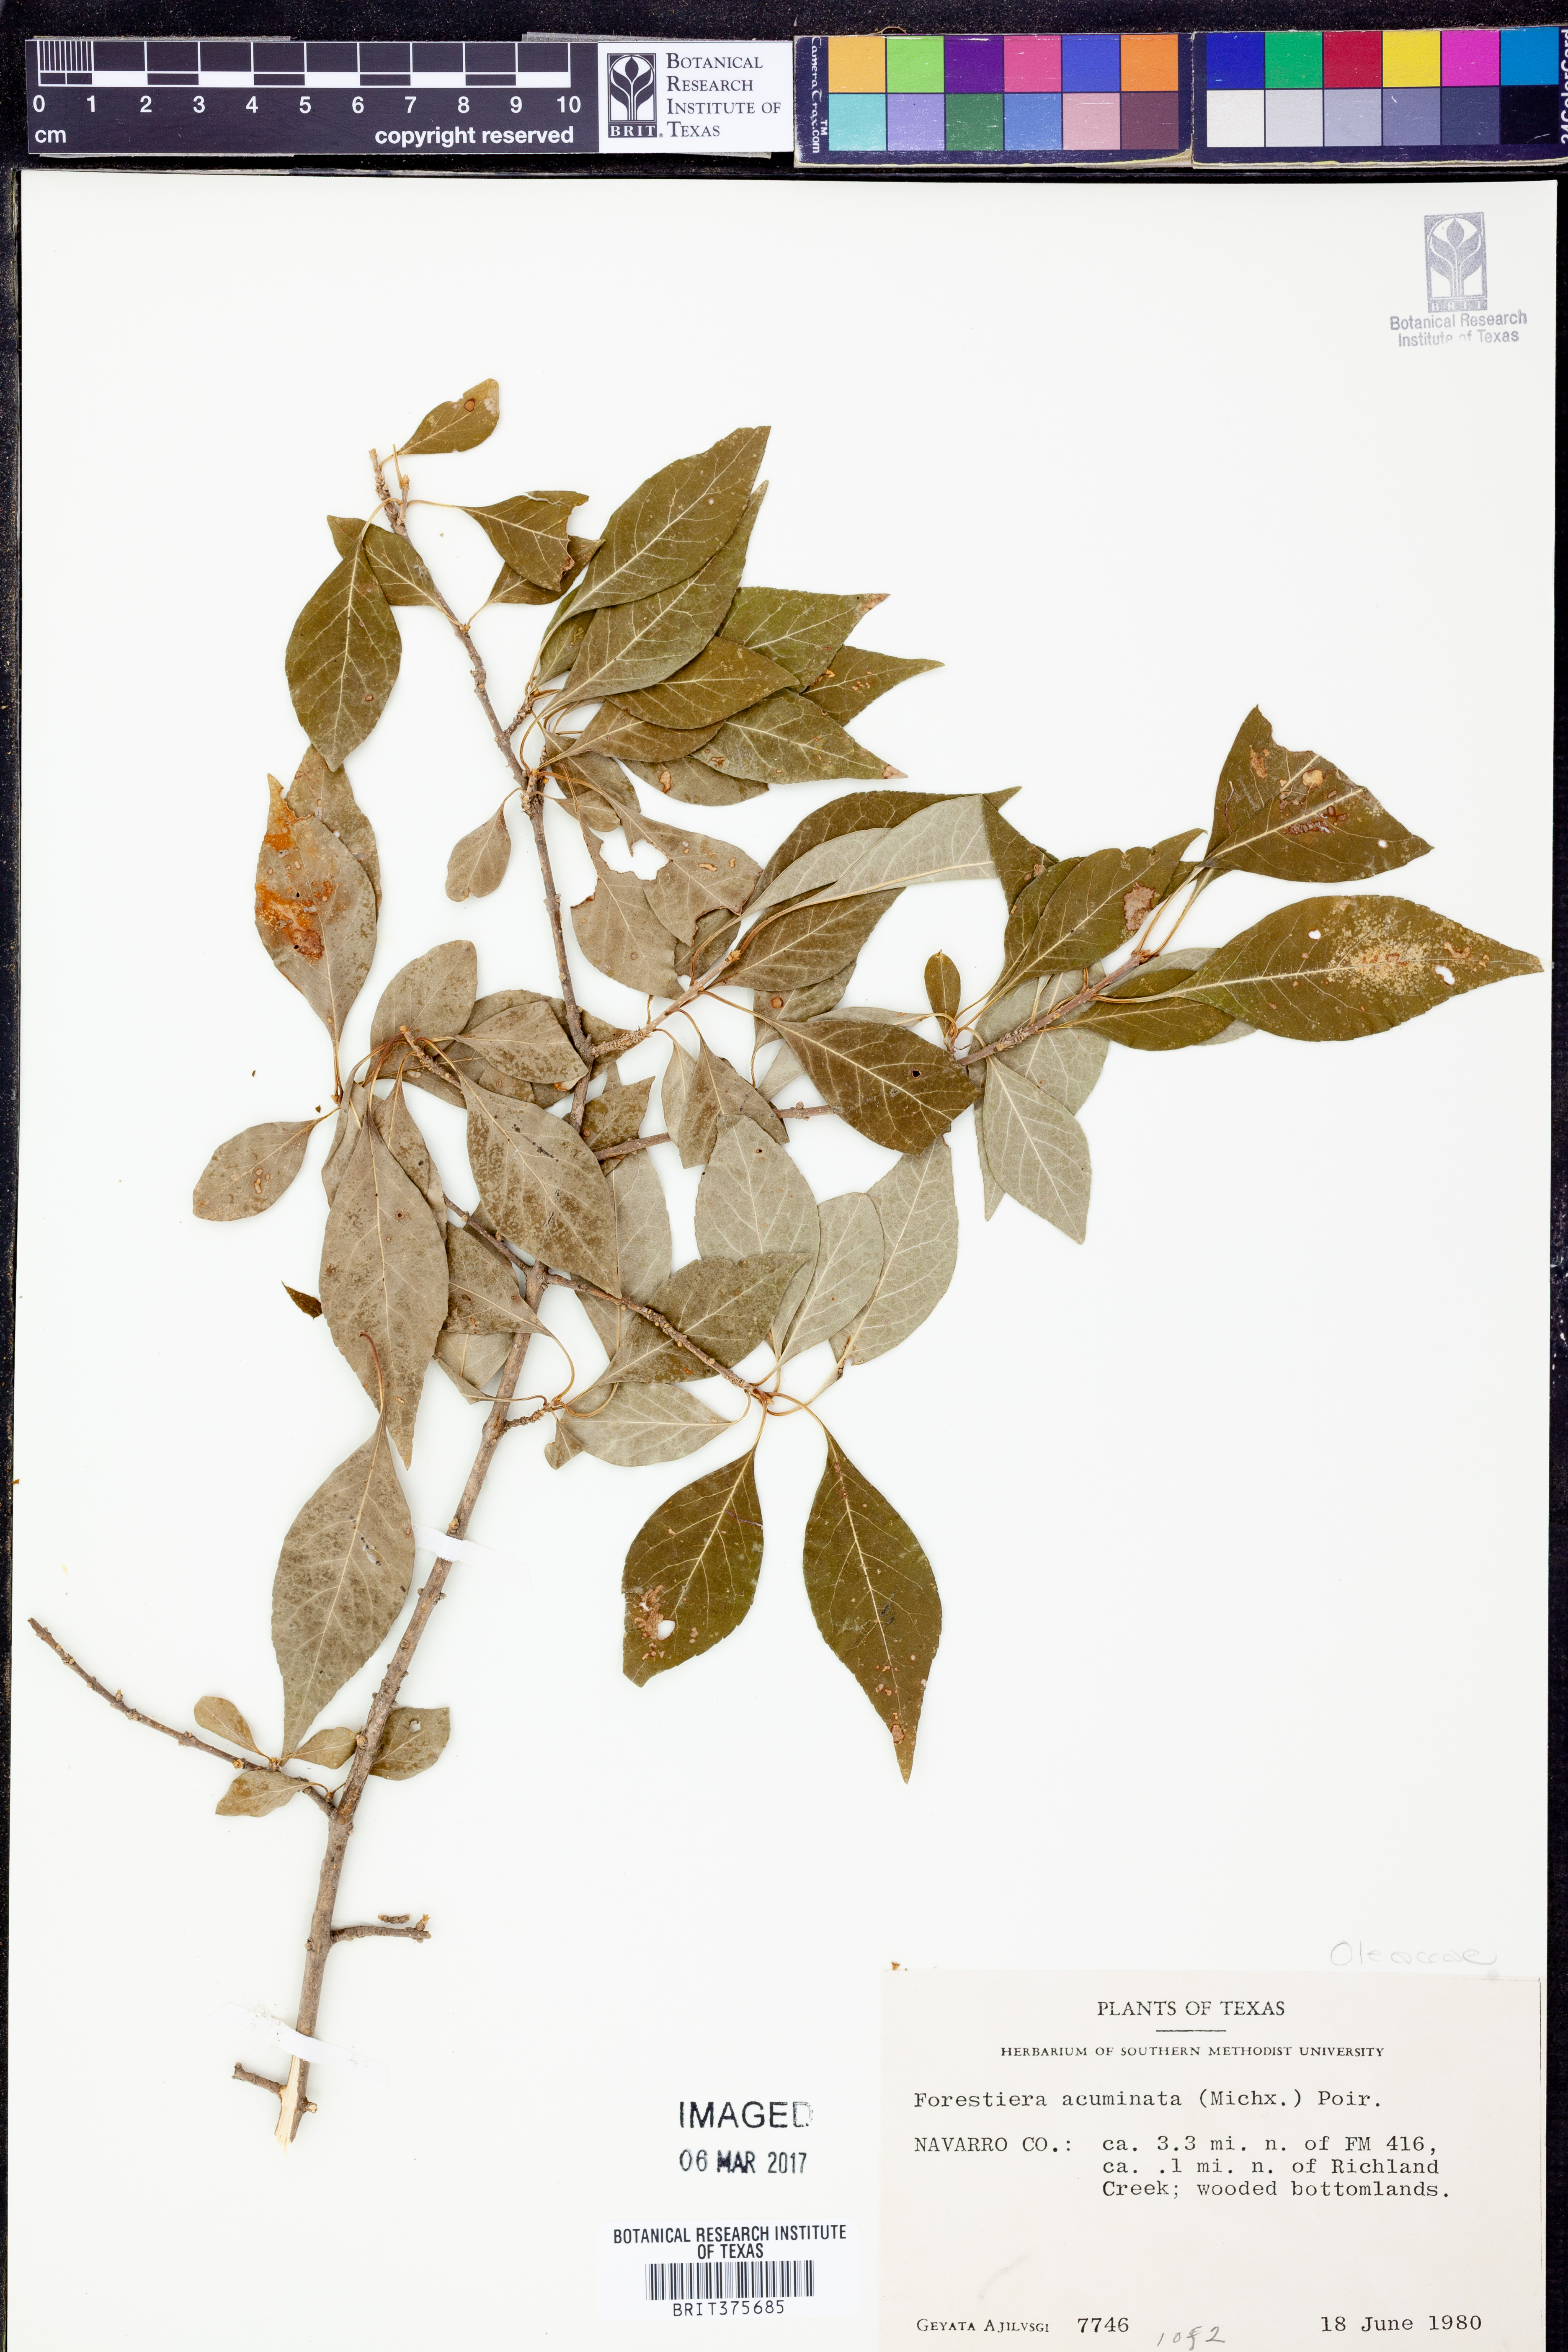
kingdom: Plantae
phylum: Tracheophyta
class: Magnoliopsida
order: Lamiales
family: Oleaceae
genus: Forestiera
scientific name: Forestiera acuminata
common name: Swamp-privet
